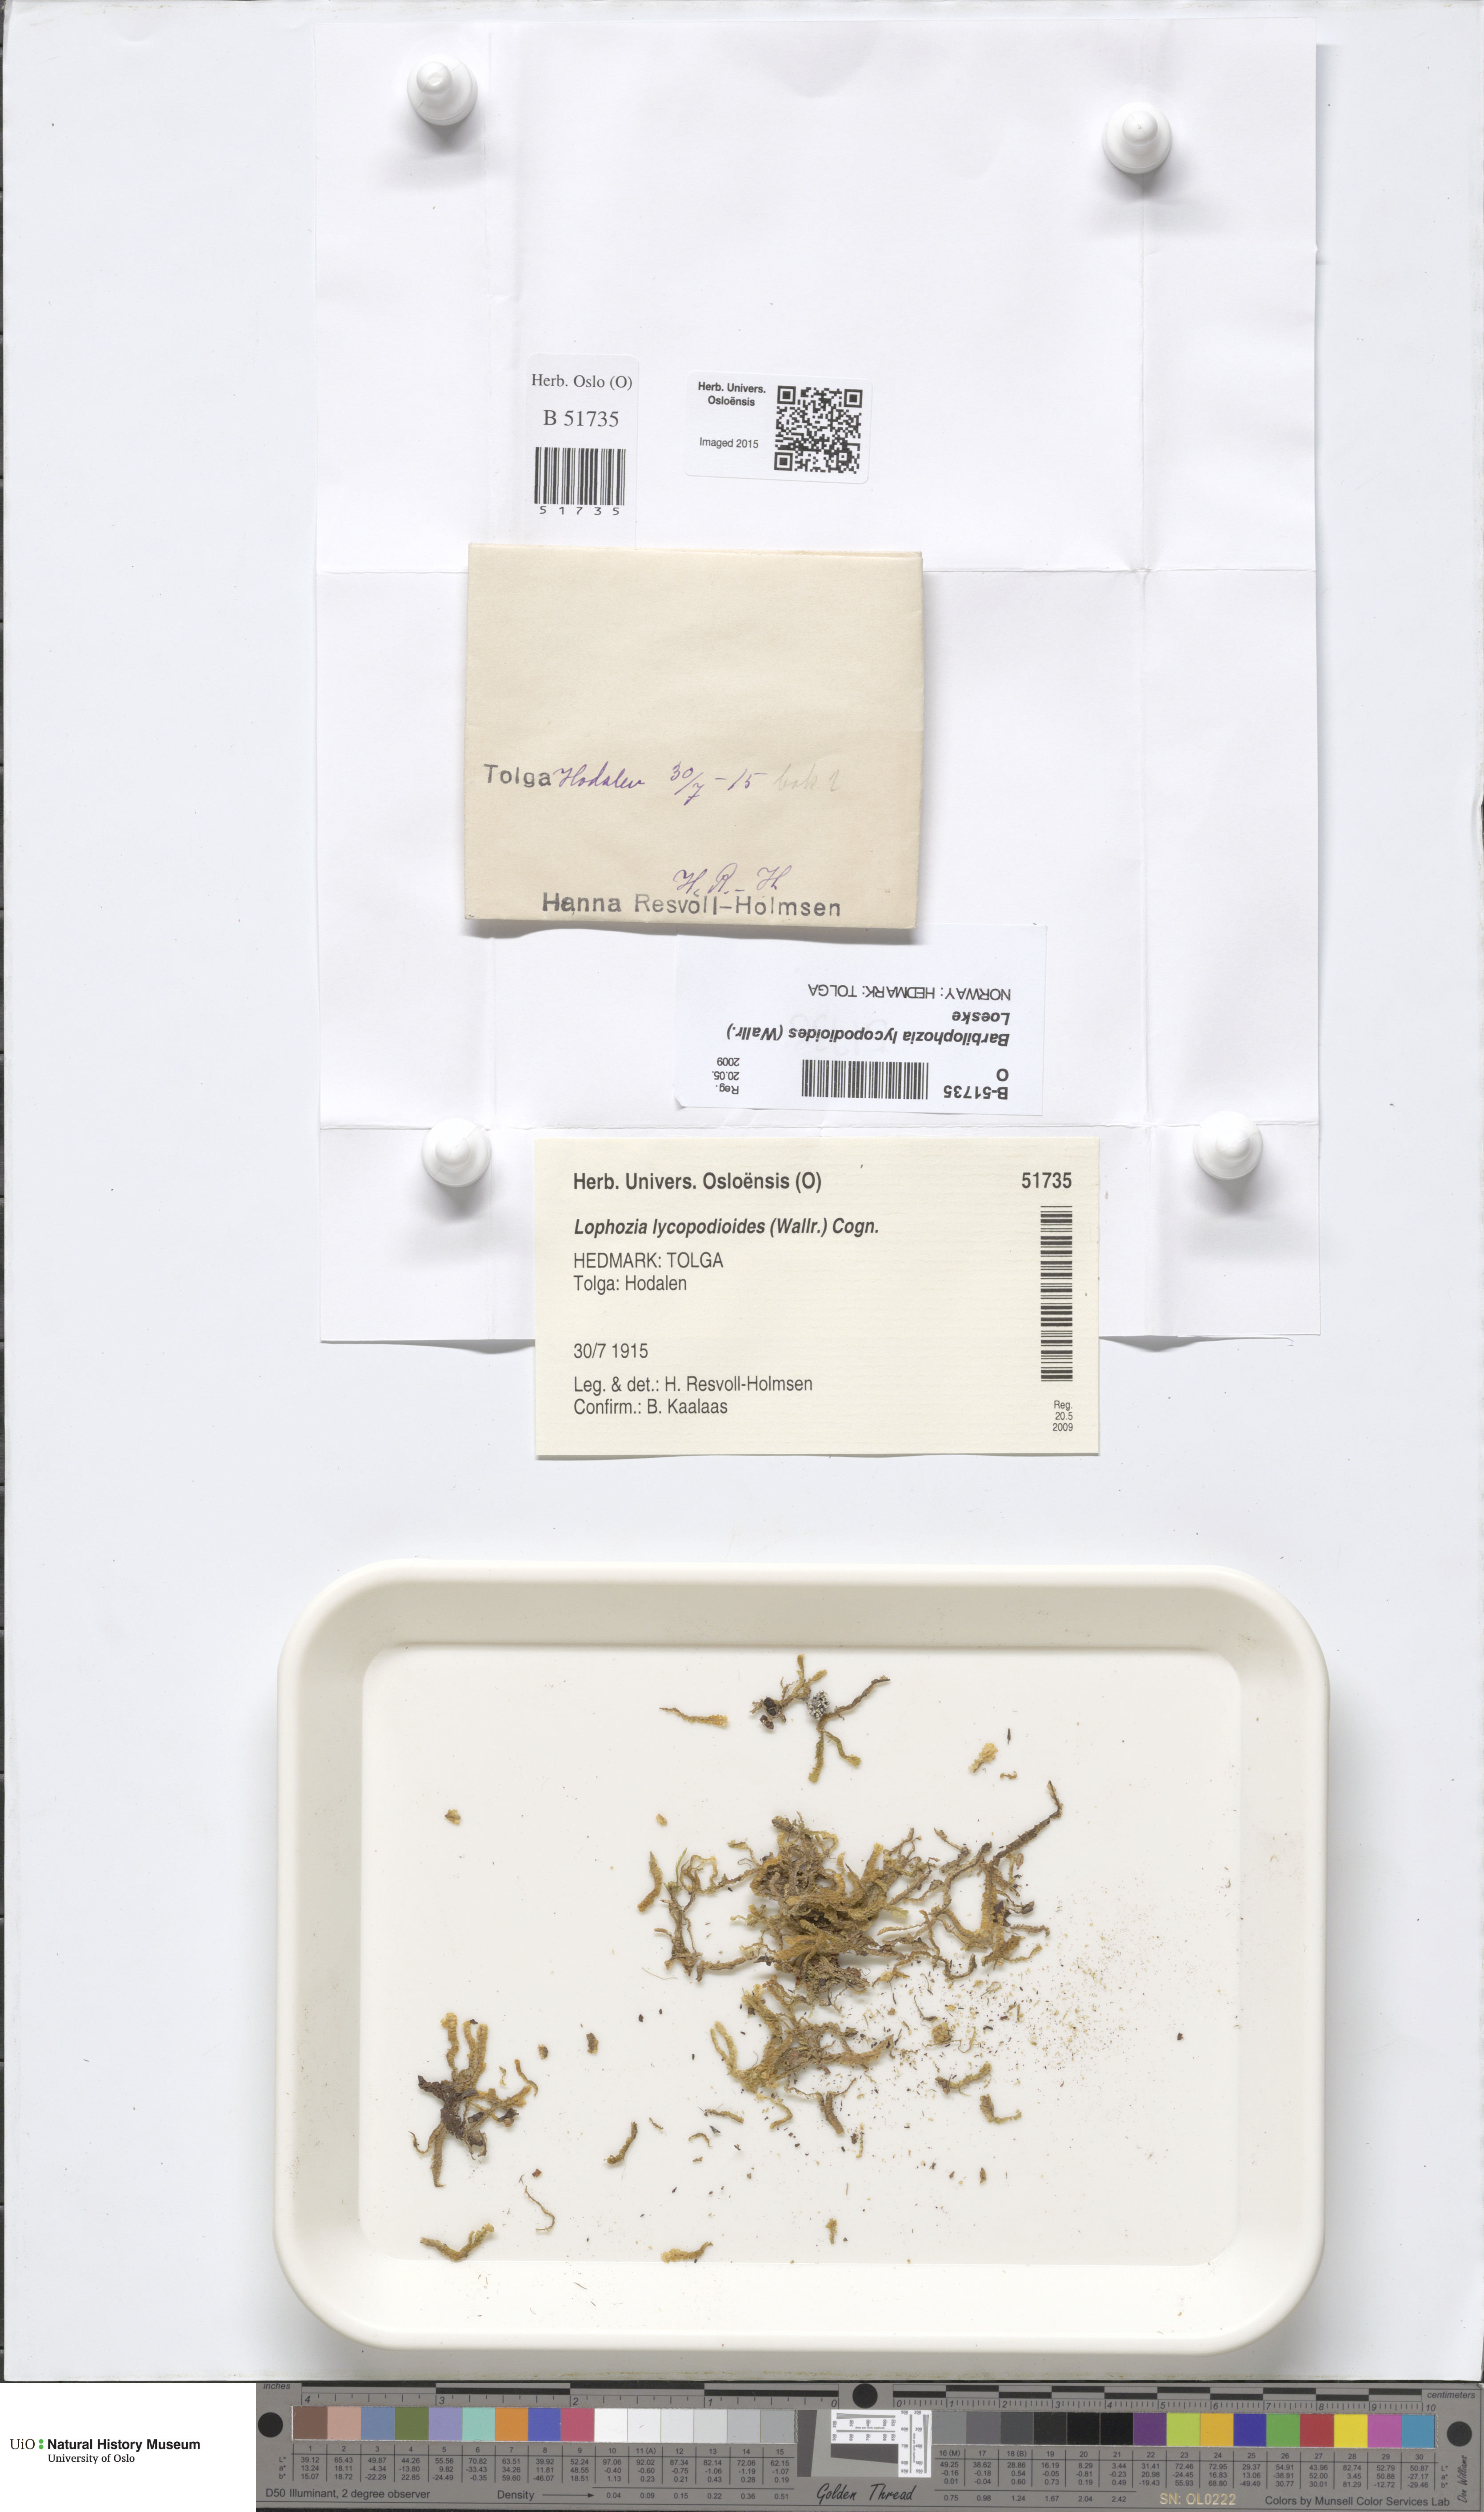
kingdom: Plantae
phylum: Marchantiophyta
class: Jungermanniopsida
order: Jungermanniales
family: Anastrophyllaceae
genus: Barbilophozia
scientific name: Barbilophozia lycopodioides
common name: Greater pawwort
